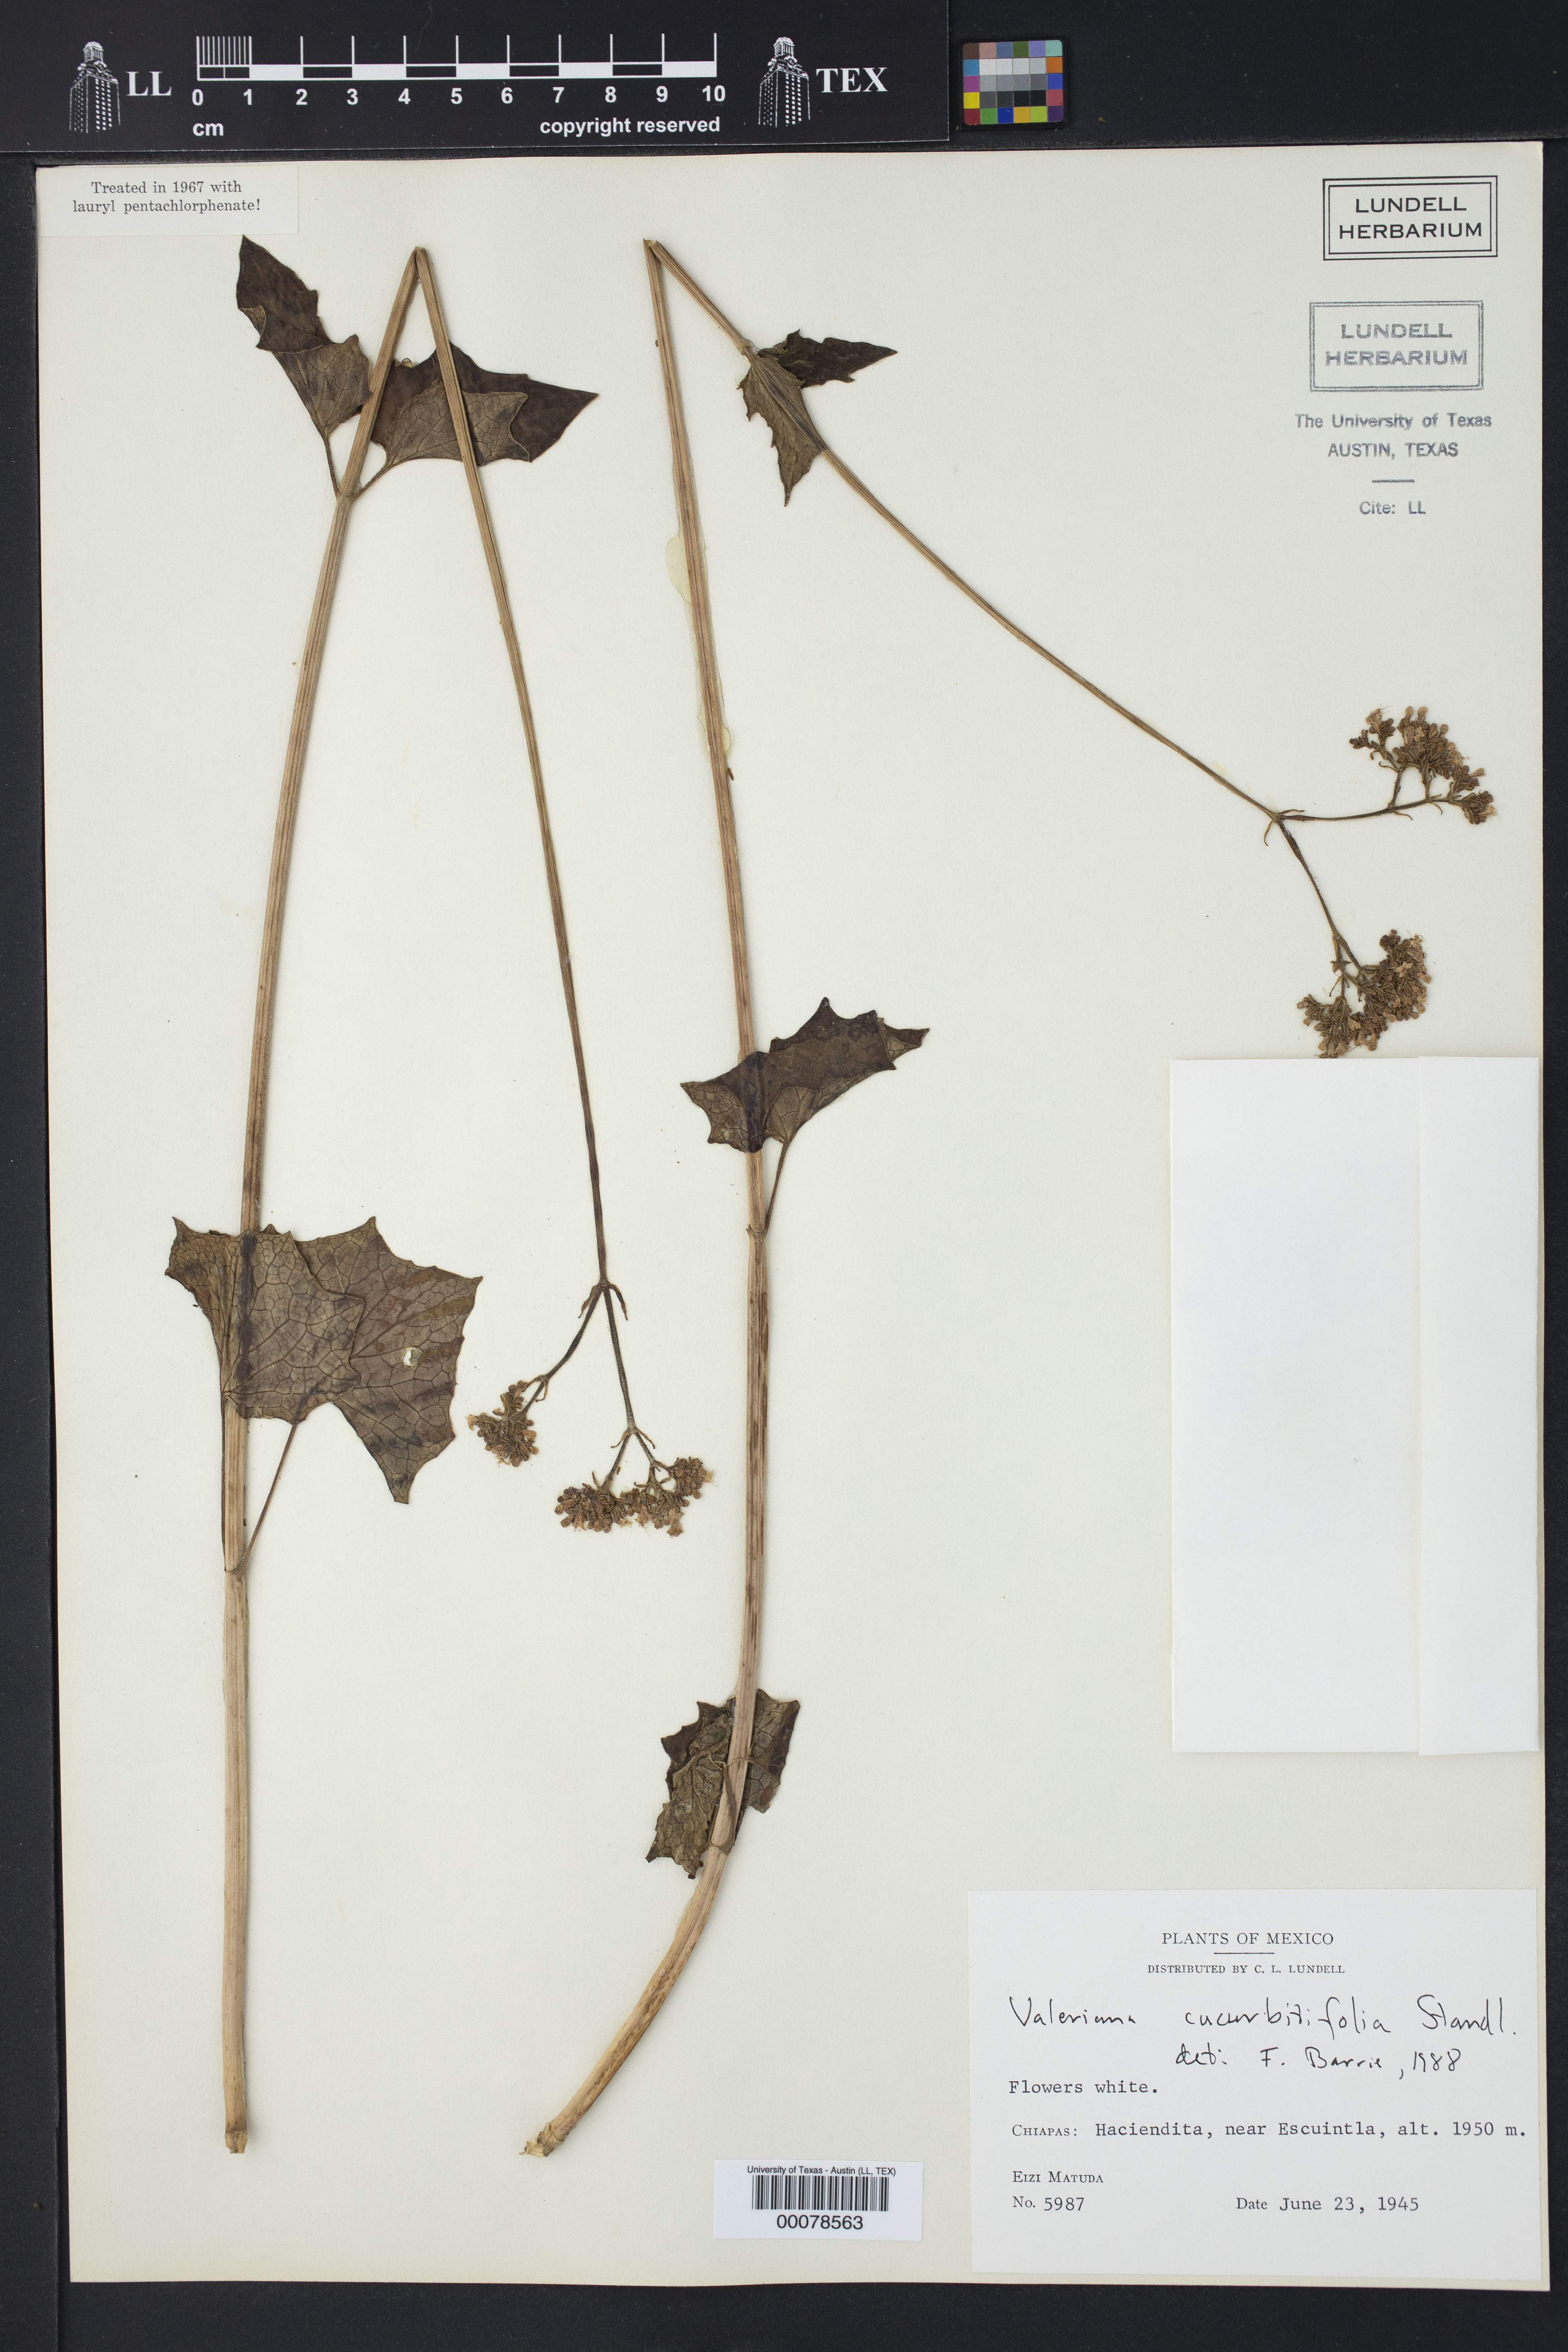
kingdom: Plantae
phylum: Tracheophyta
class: Magnoliopsida
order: Dipsacales
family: Caprifoliaceae
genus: Valeriana
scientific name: Valeriana cucurbitifolia
